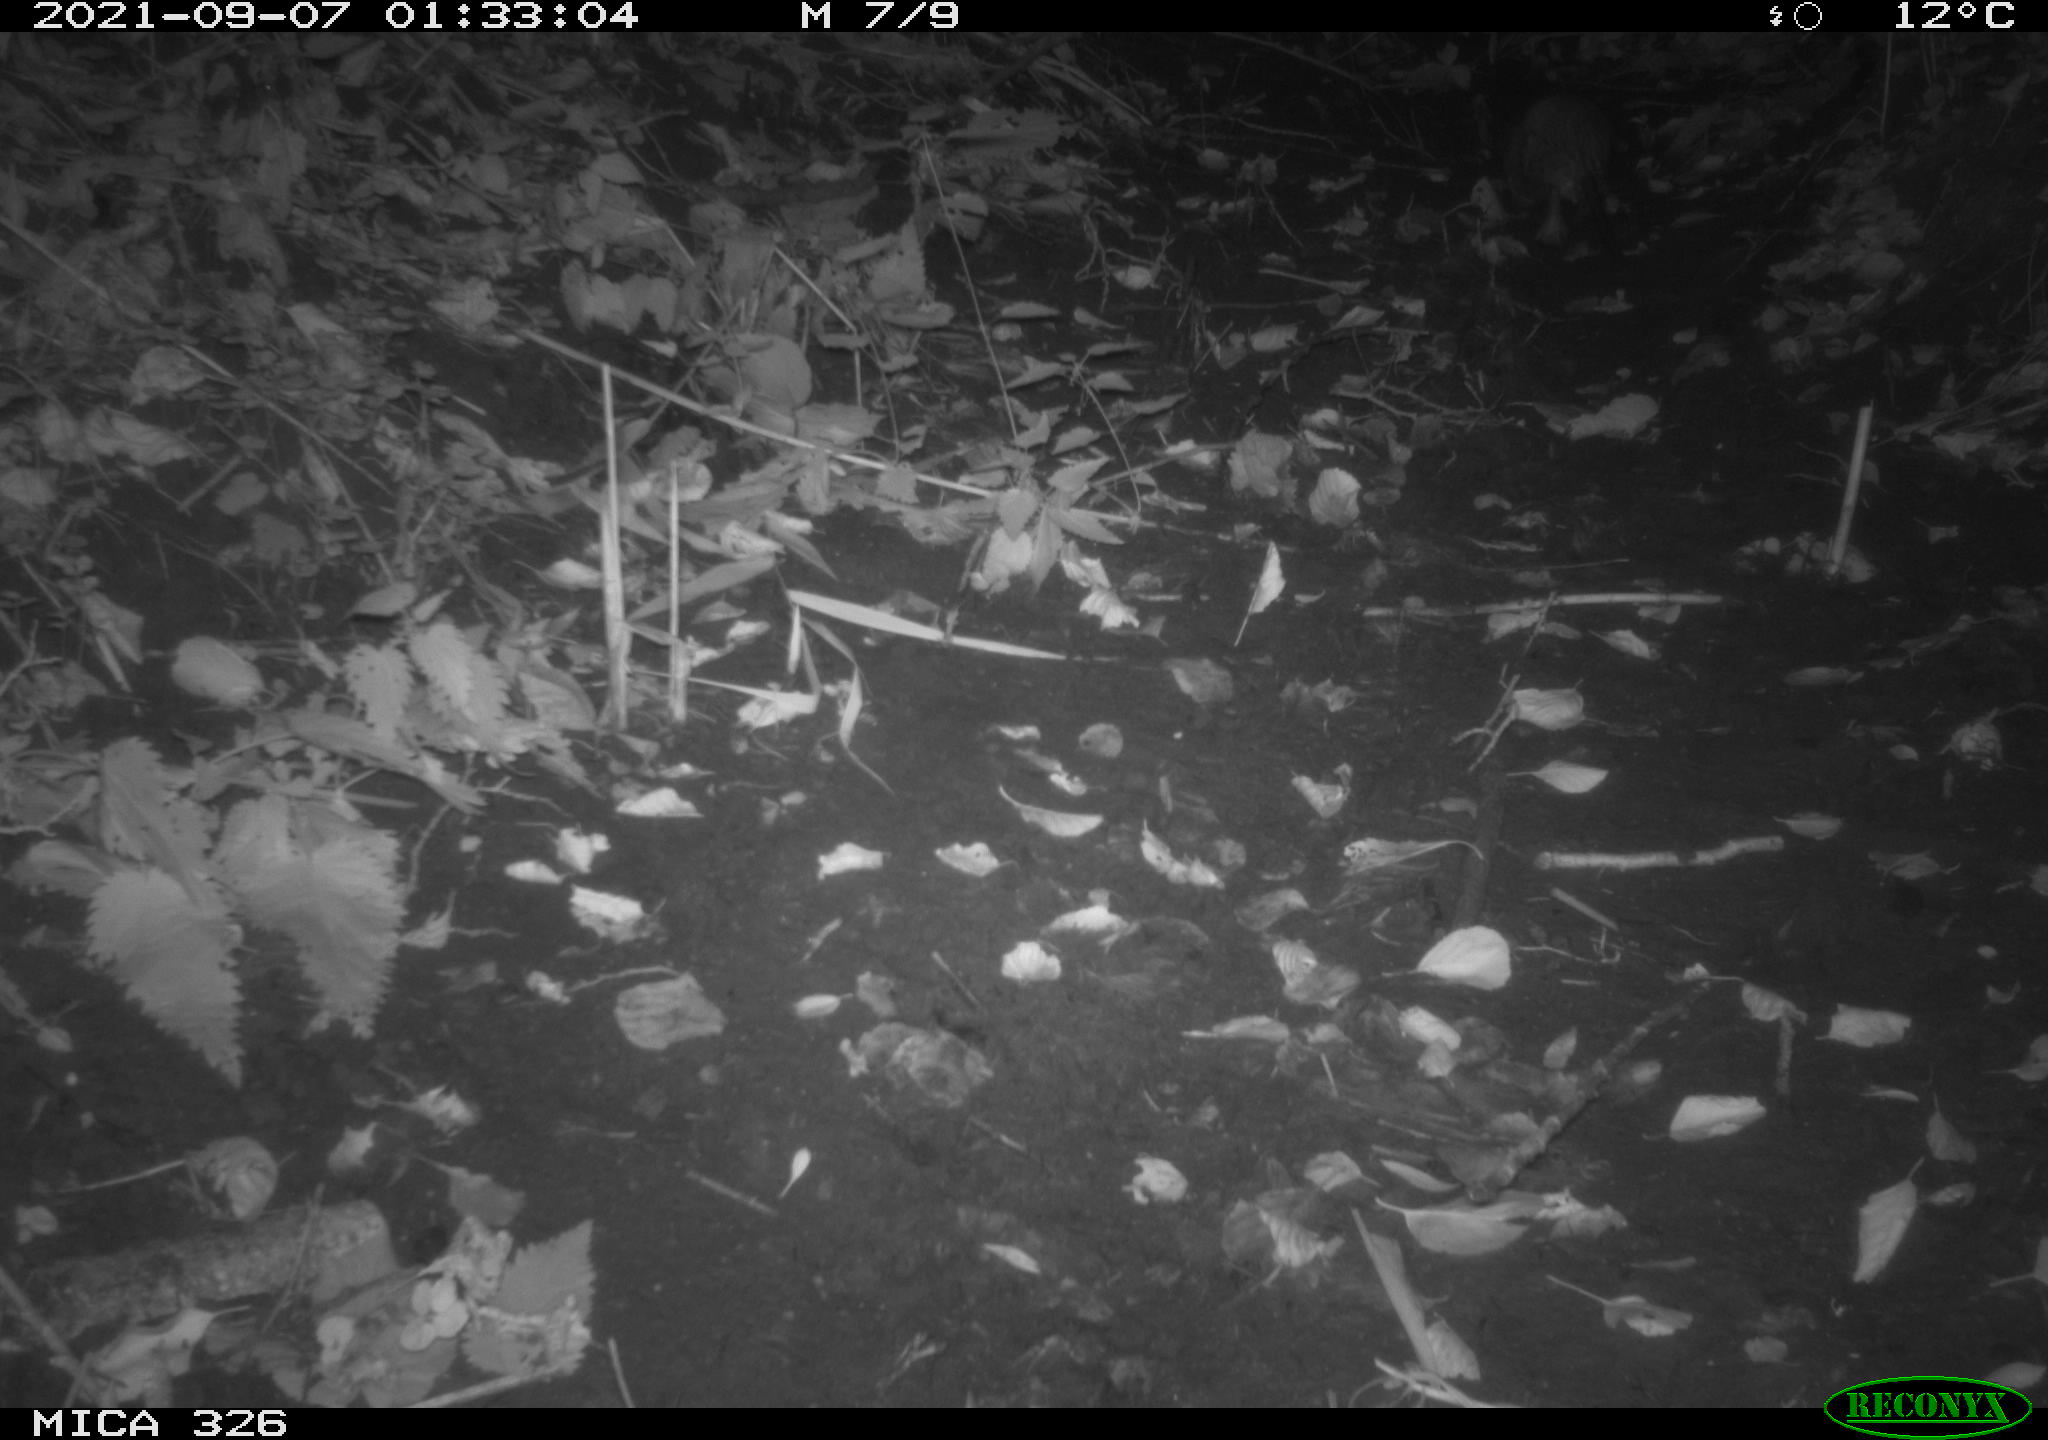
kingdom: Animalia
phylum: Chordata
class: Mammalia
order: Rodentia
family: Cricetidae
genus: Ondatra
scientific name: Ondatra zibethicus
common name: Muskrat
